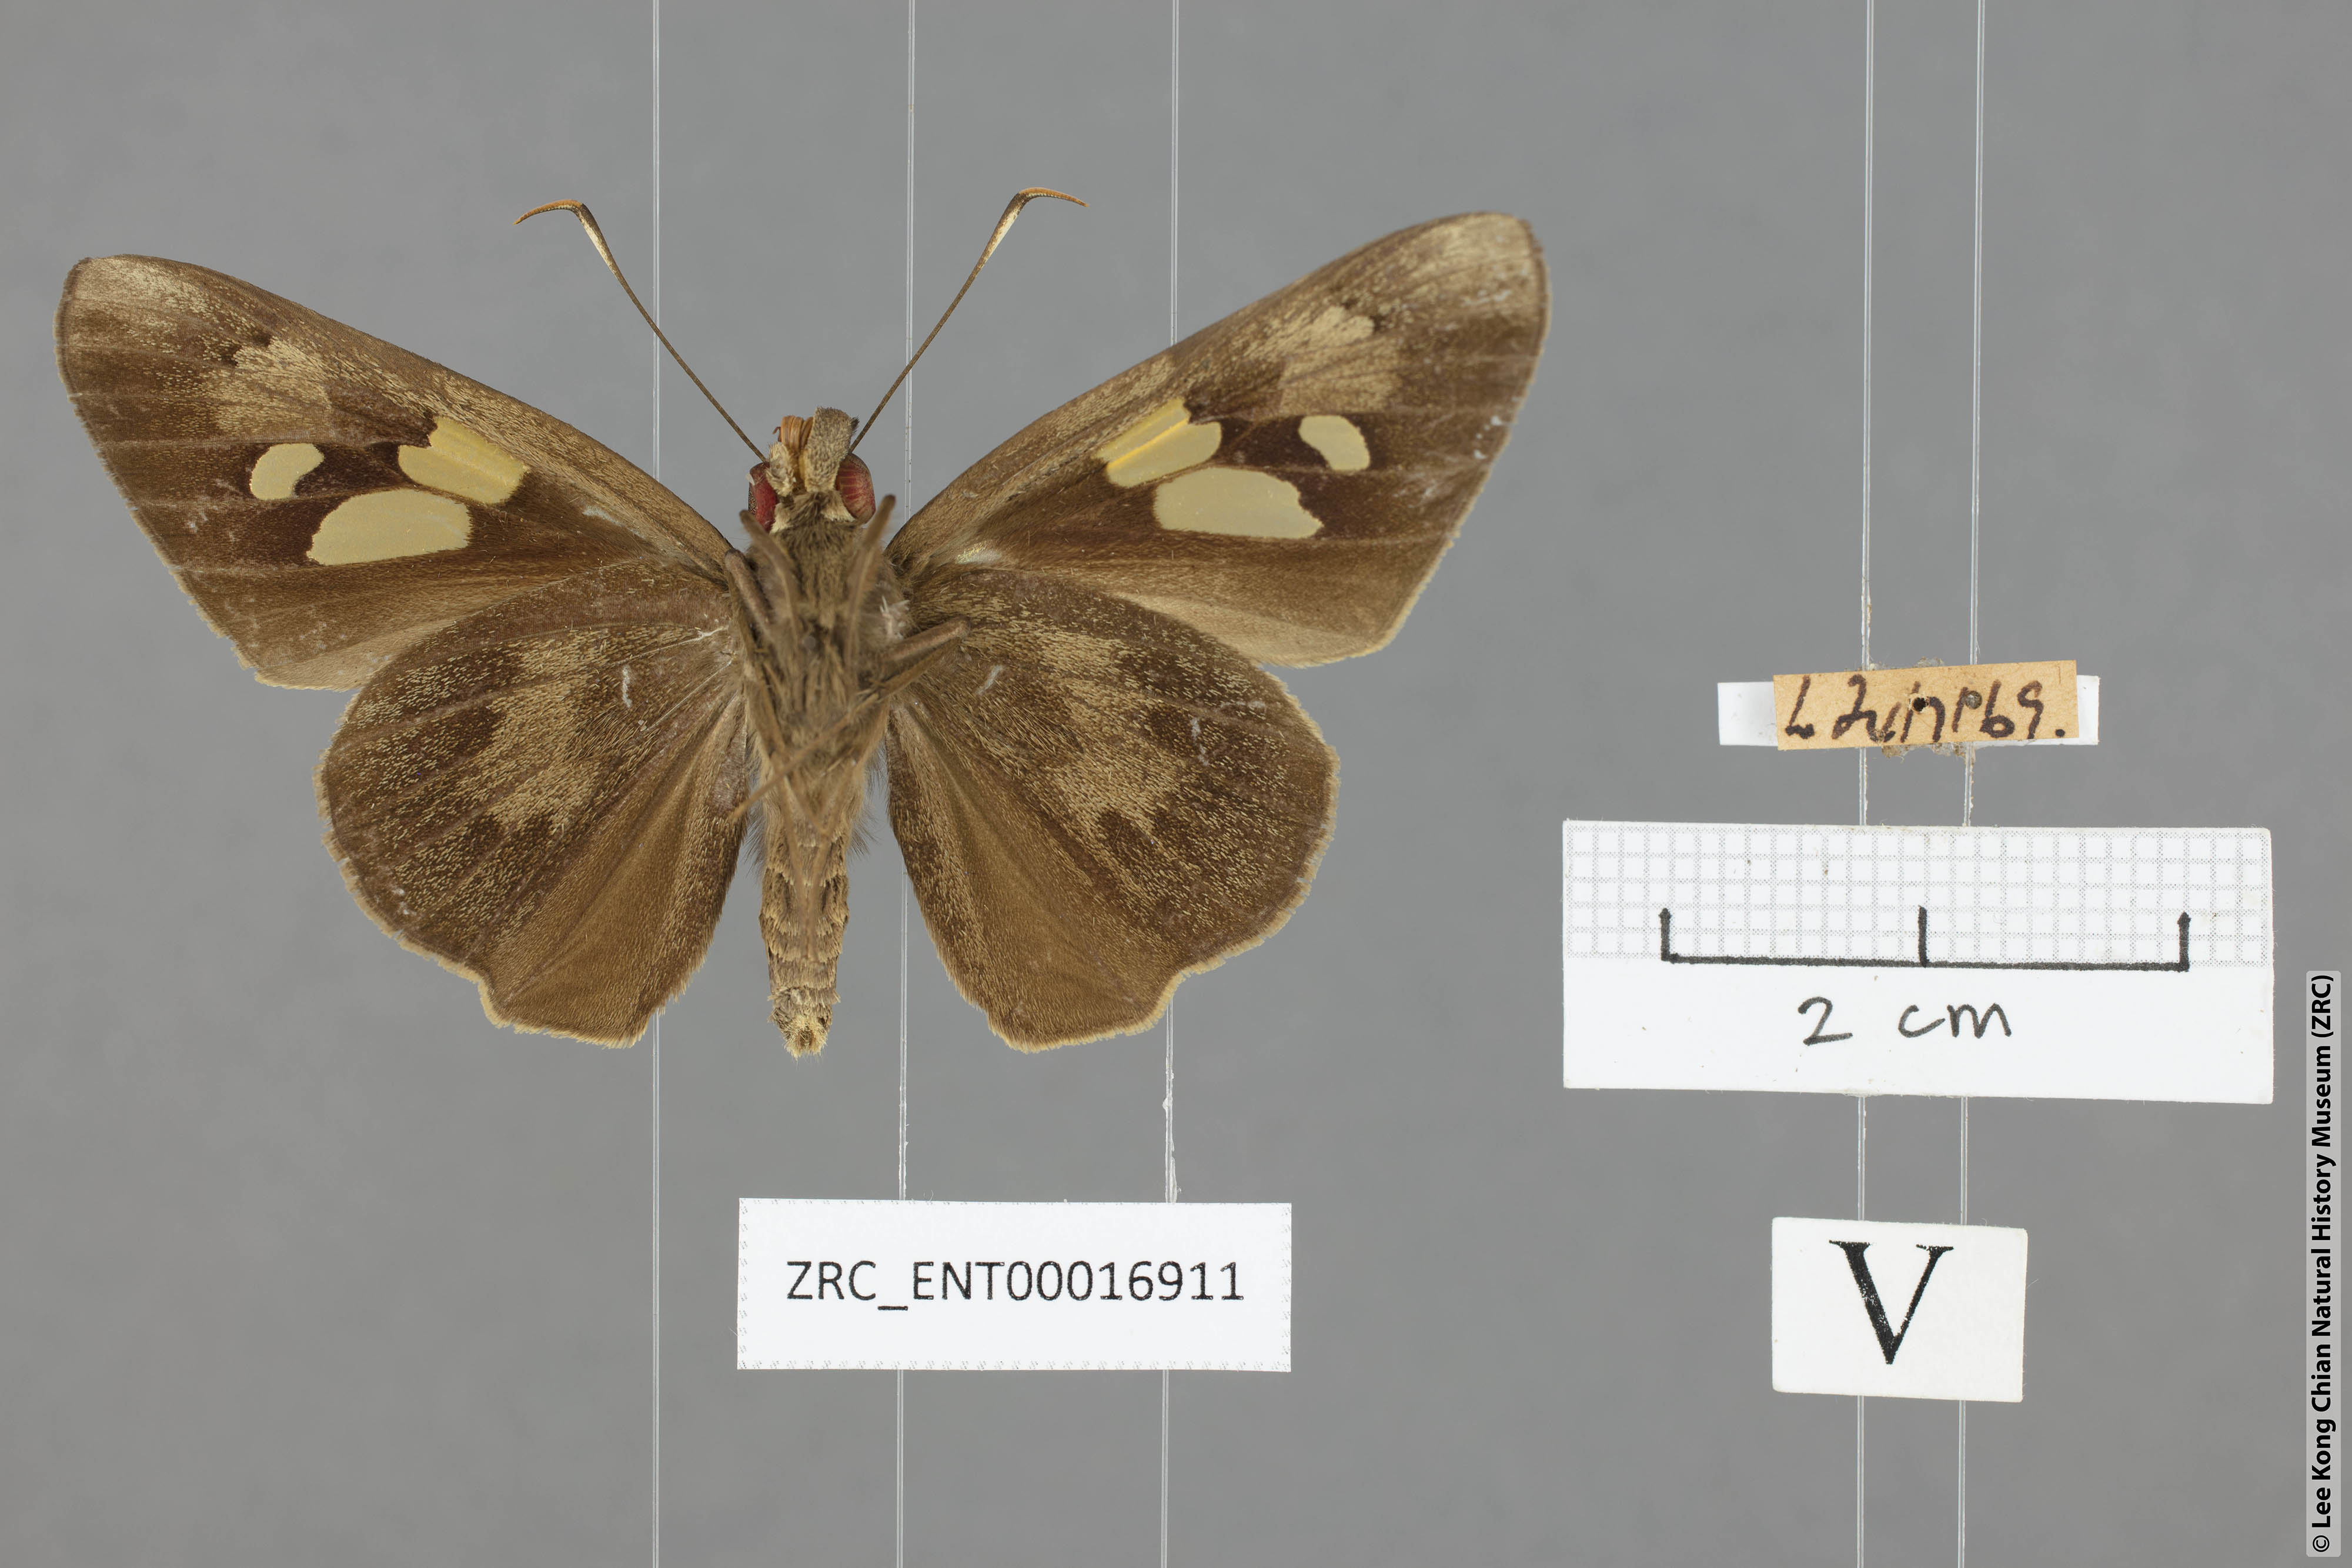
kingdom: Animalia
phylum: Arthropoda
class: Insecta
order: Lepidoptera
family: Hesperiidae
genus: Erionota
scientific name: Erionota
